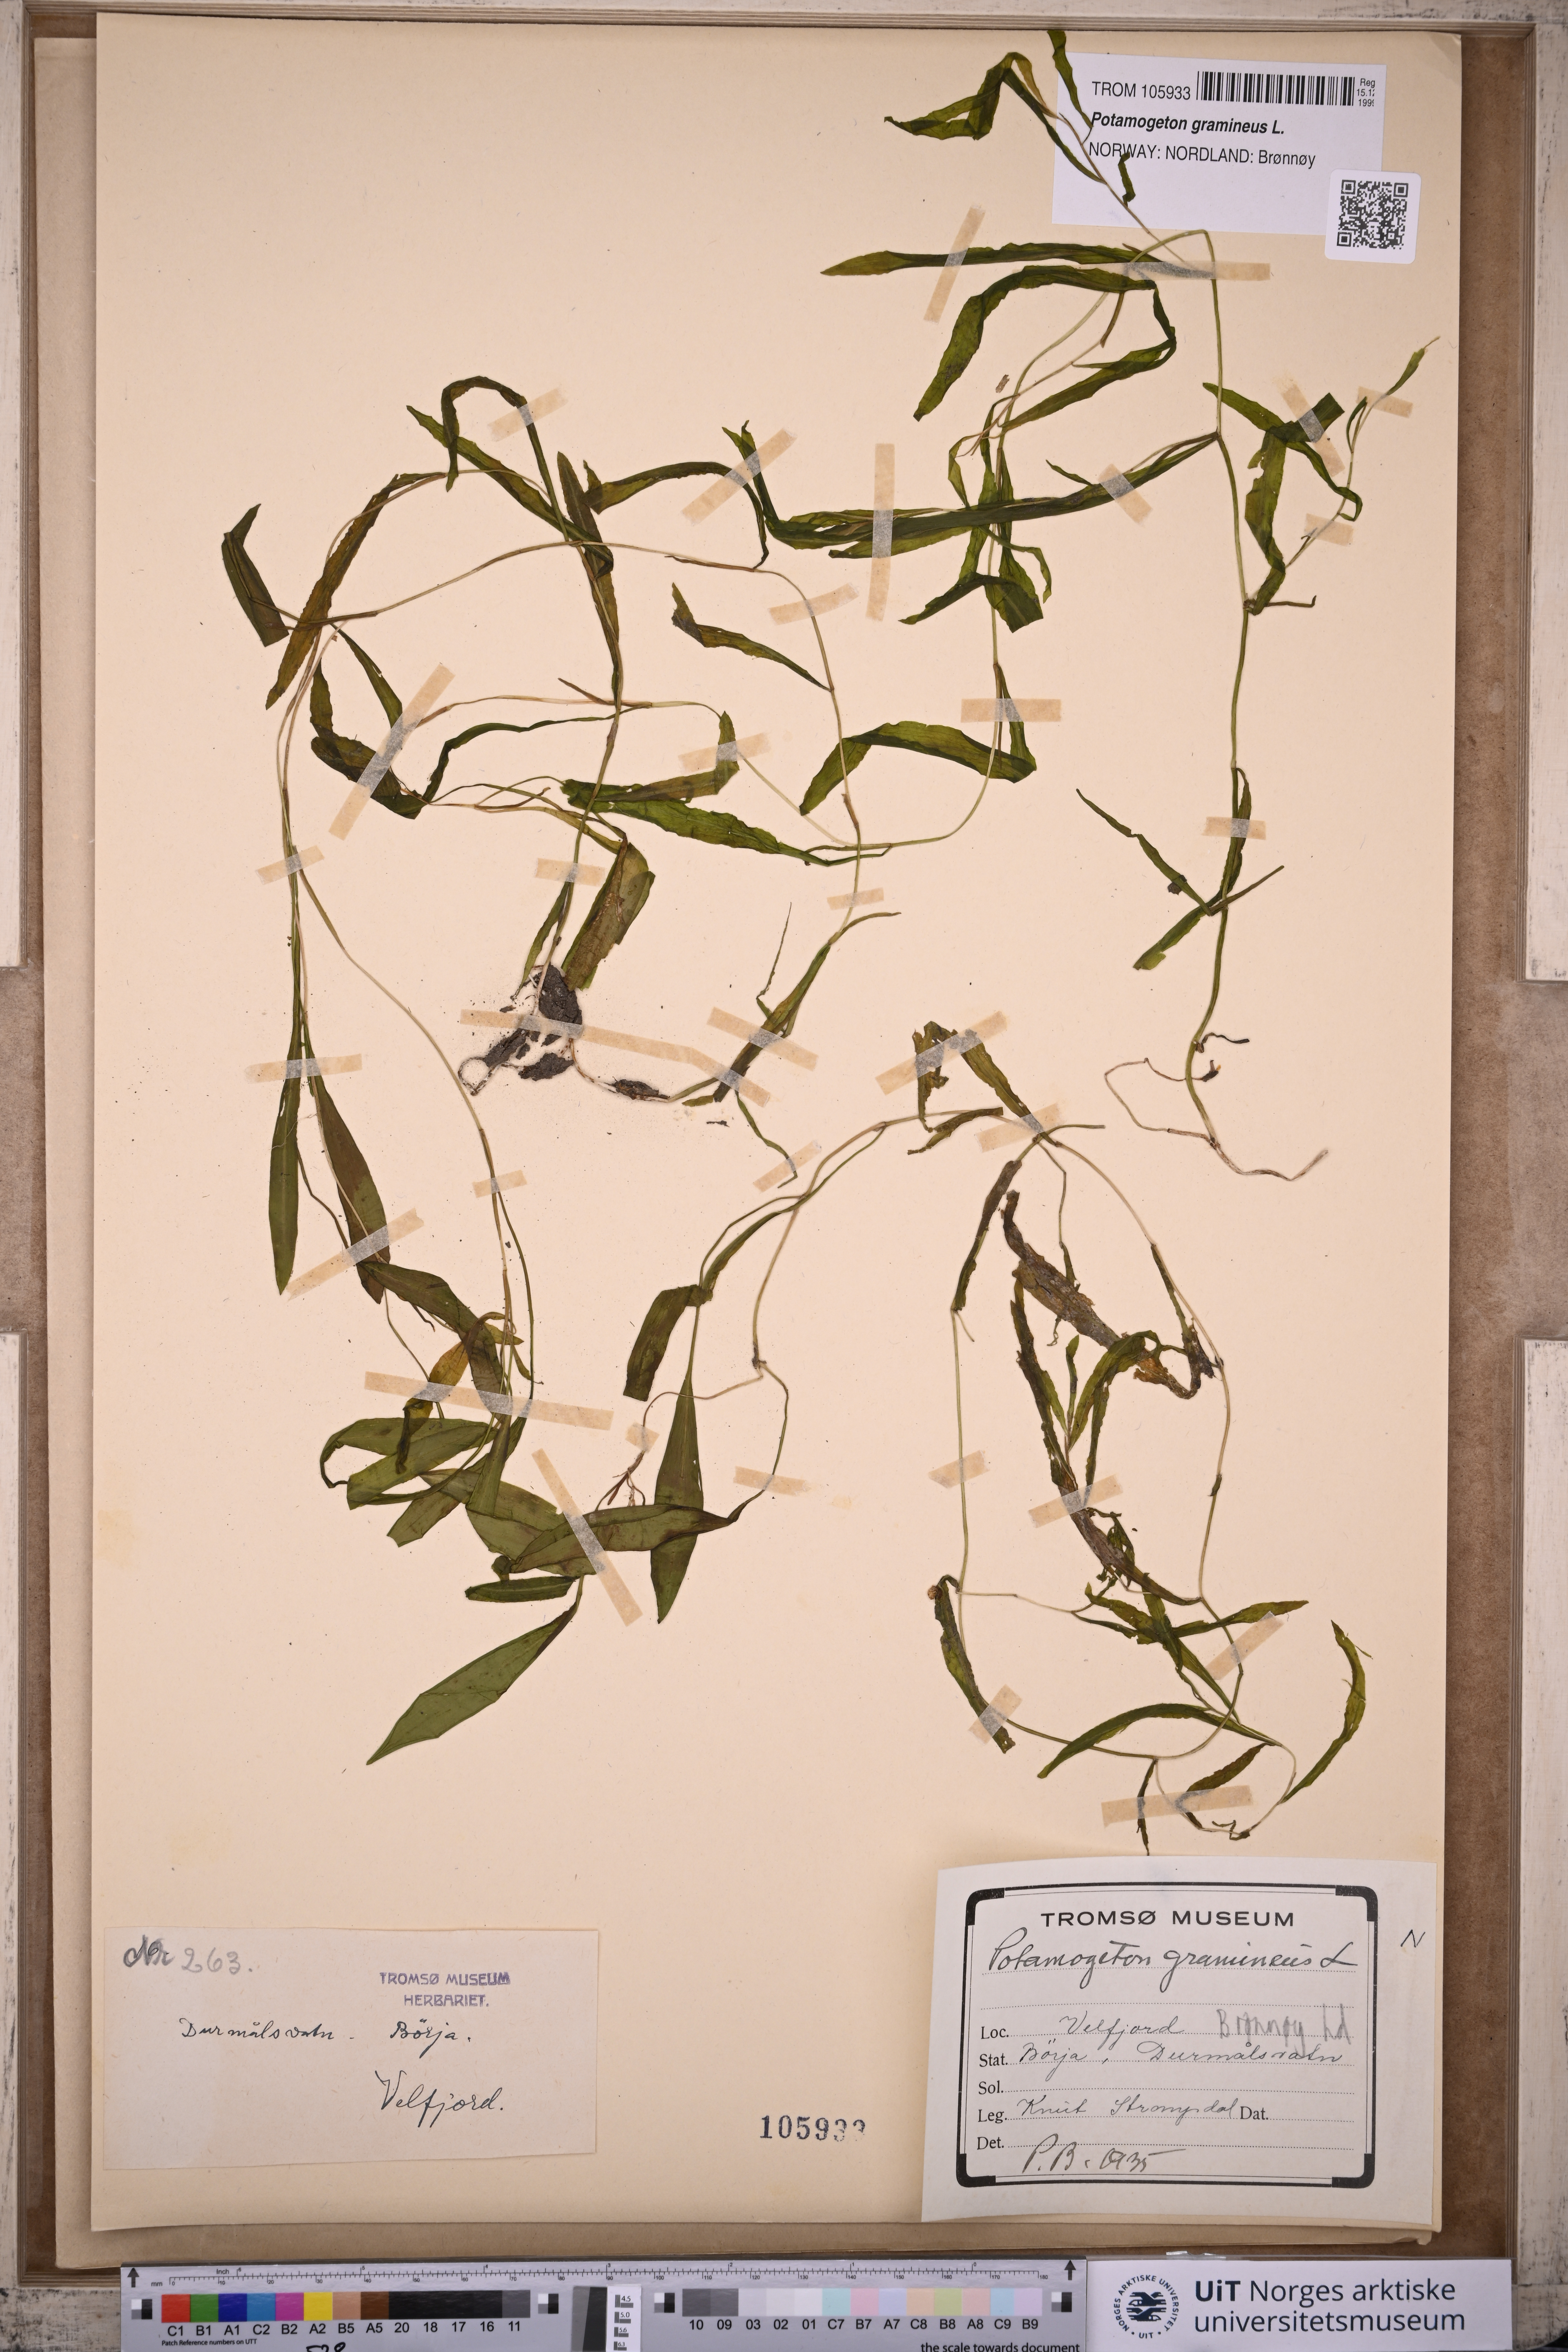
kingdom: Plantae
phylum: Tracheophyta
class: Liliopsida
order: Alismatales
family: Potamogetonaceae
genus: Potamogeton
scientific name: Potamogeton gramineus
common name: Various-leaved pondweed
